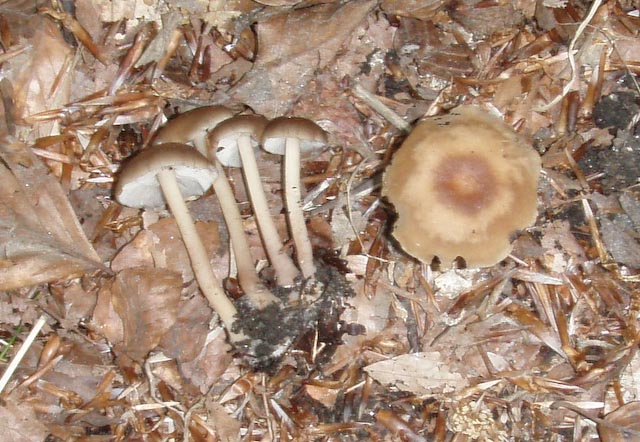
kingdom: Fungi
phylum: Basidiomycota
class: Agaricomycetes
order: Agaricales
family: Omphalotaceae
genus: Gymnopus
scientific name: Gymnopus ocior
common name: mørk fladhat
